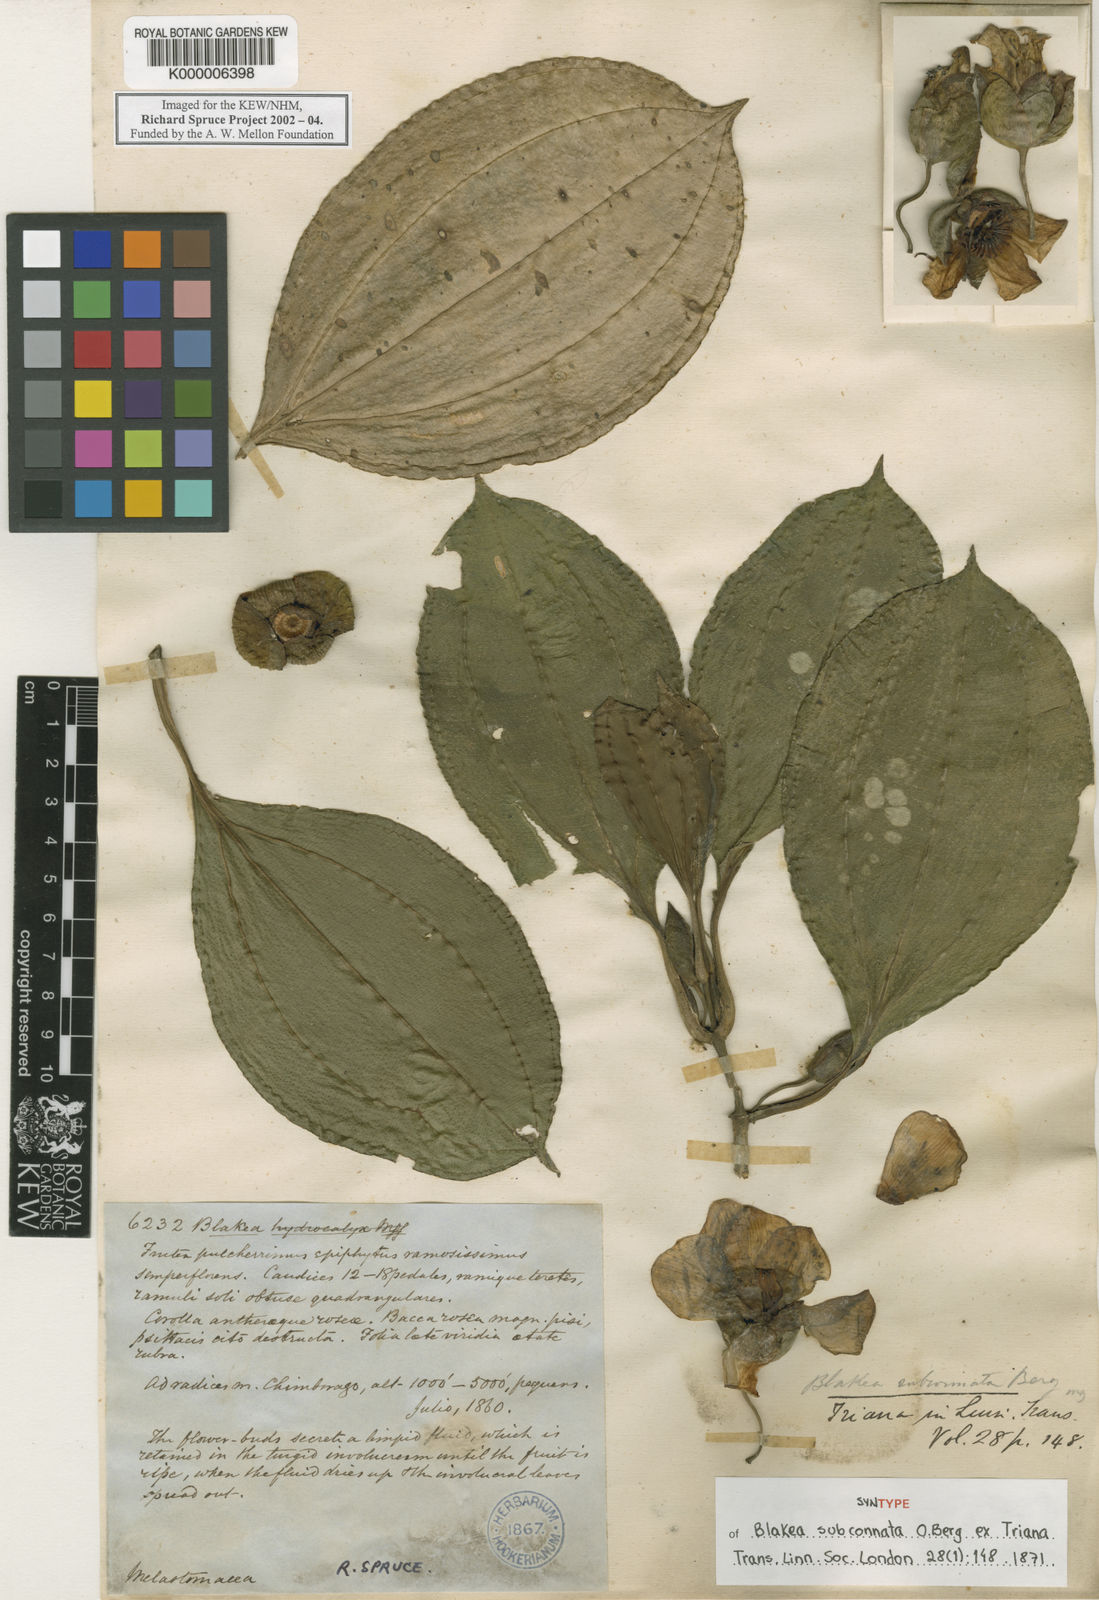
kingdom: Plantae
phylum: Tracheophyta
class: Magnoliopsida
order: Myrtales
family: Melastomataceae
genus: Blakea
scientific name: Blakea subconnata
